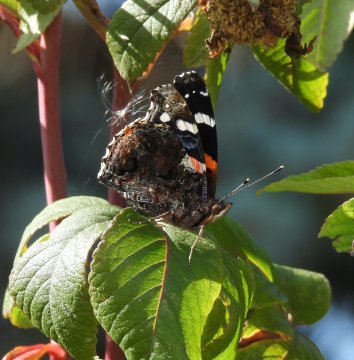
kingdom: Animalia
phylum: Arthropoda
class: Insecta
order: Lepidoptera
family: Nymphalidae
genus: Vanessa
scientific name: Vanessa atalanta
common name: Red Admiral
